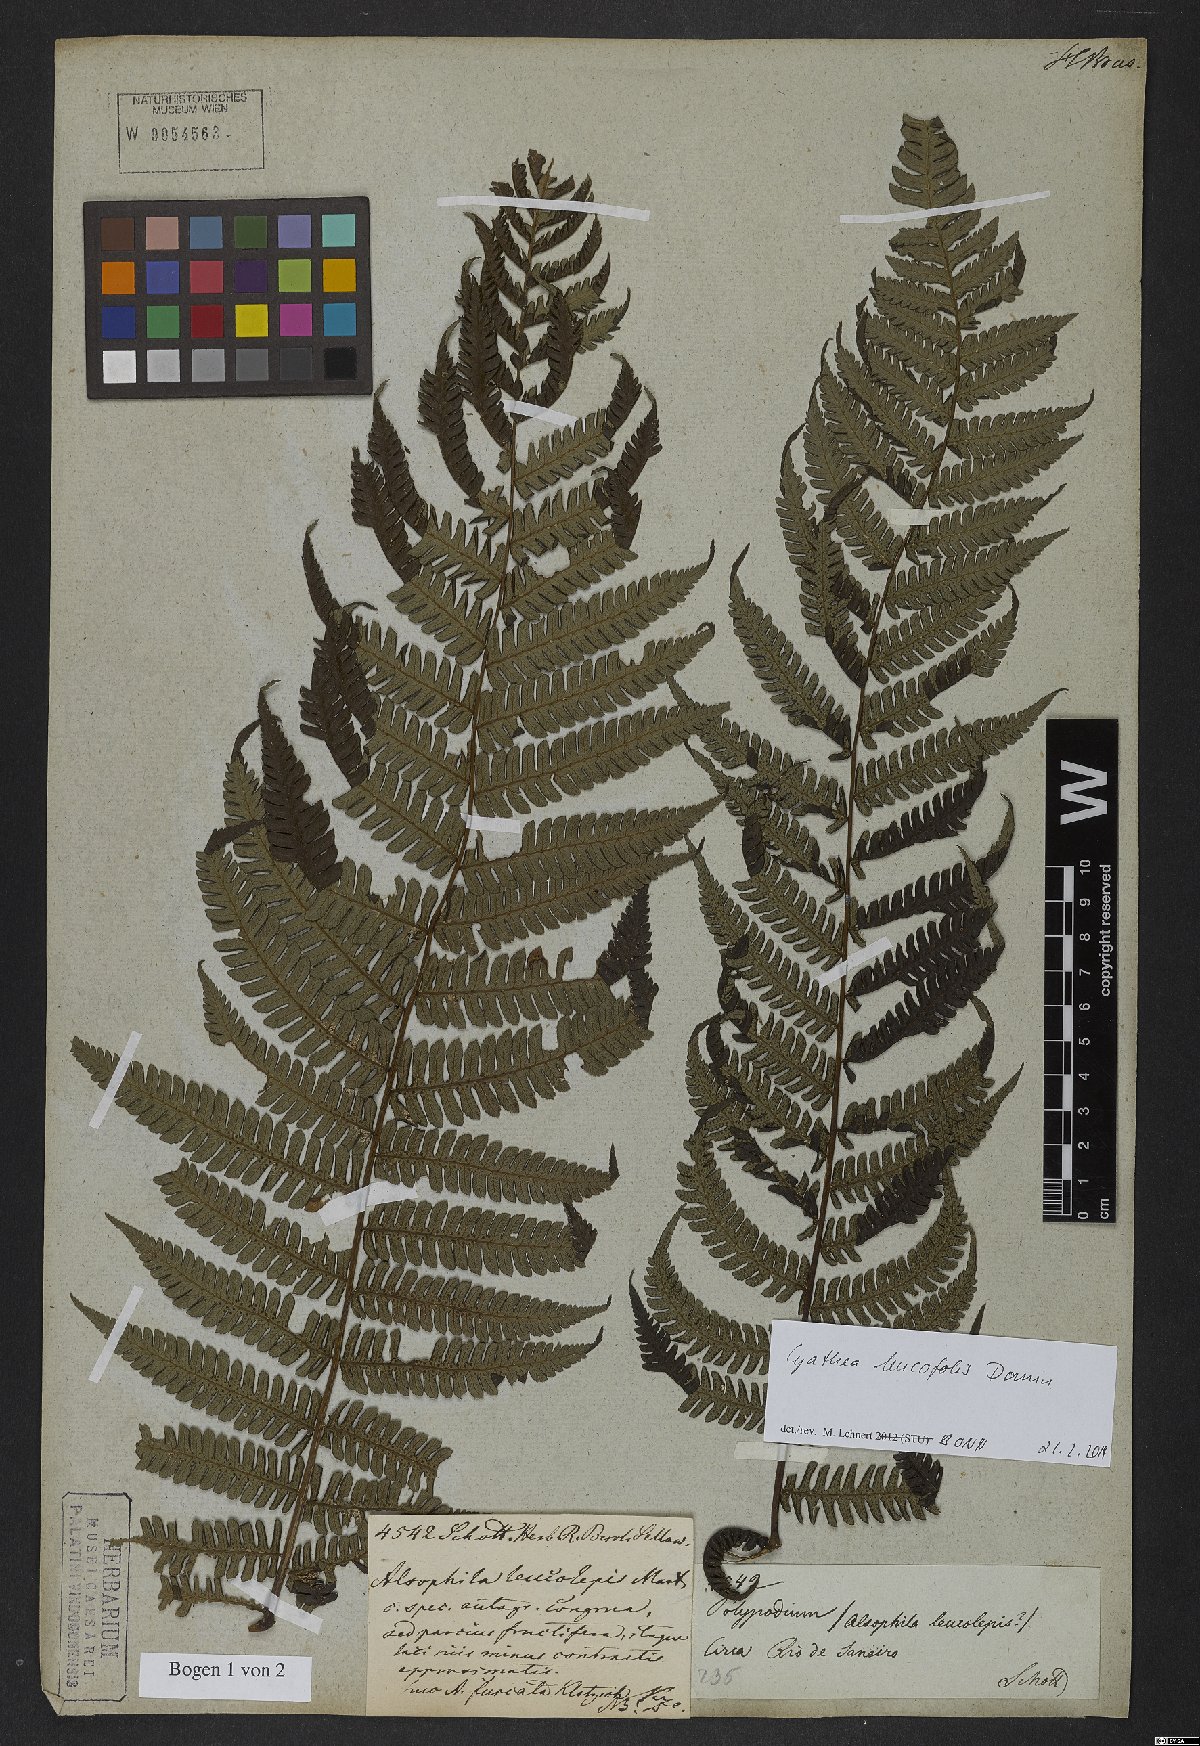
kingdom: Plantae
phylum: Tracheophyta
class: Polypodiopsida
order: Cyatheales
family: Cyatheaceae
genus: Cyathea
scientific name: Cyathea leucofolis
